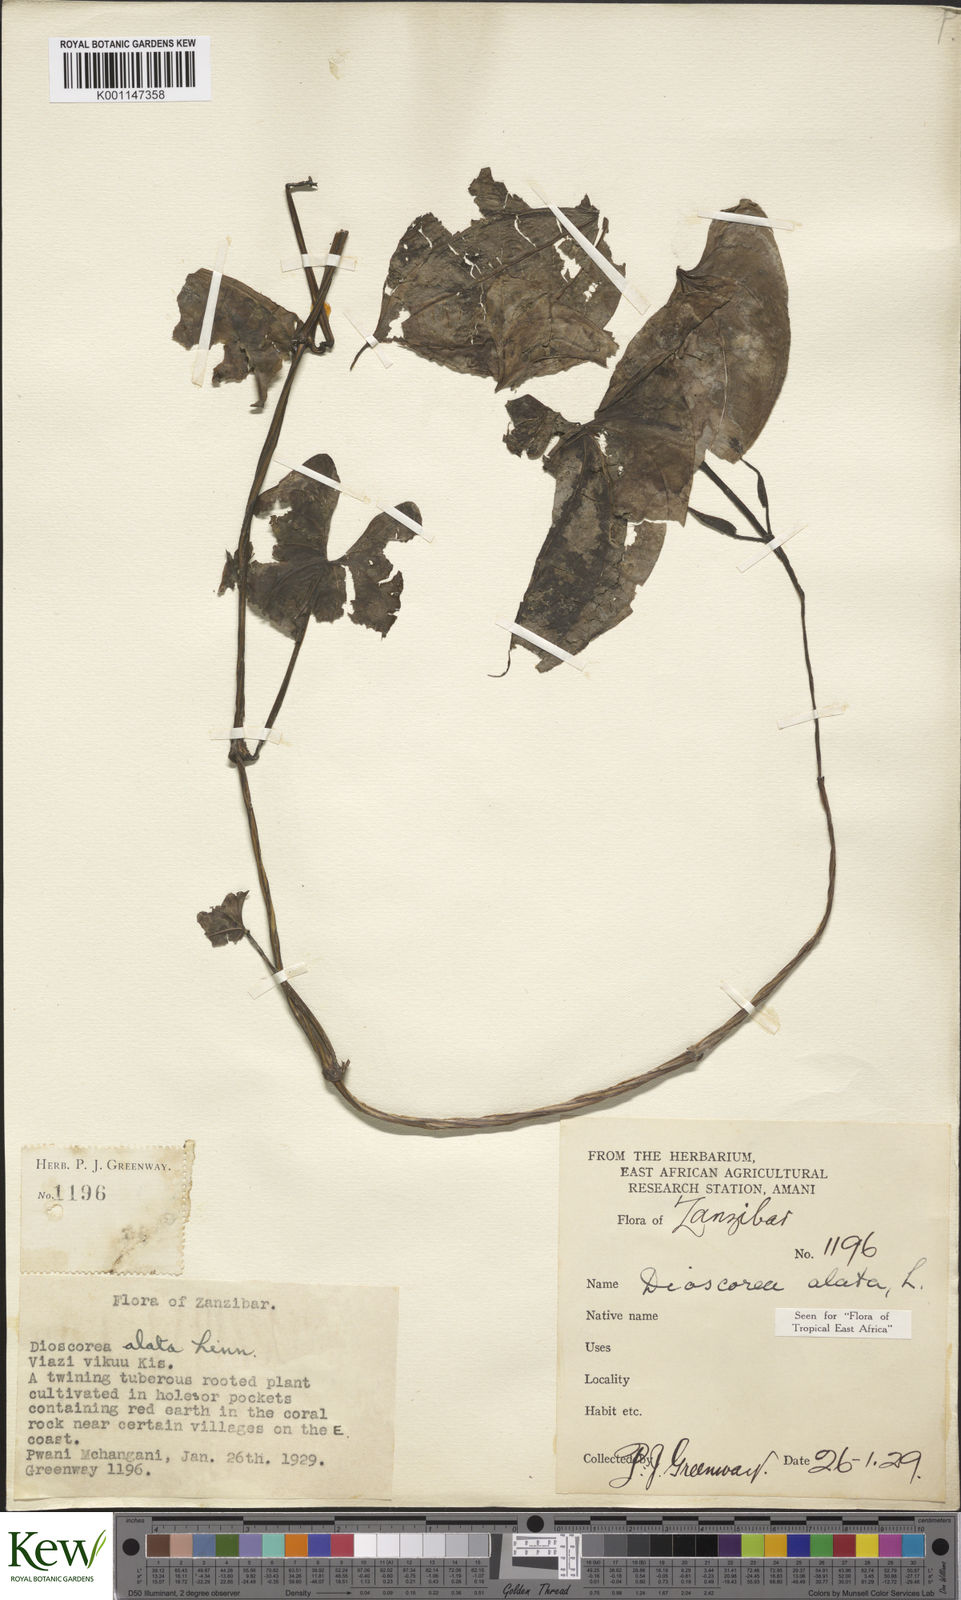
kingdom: Plantae
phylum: Tracheophyta
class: Liliopsida
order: Dioscoreales
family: Dioscoreaceae
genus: Dioscorea
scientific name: Dioscorea alata
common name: Water yam
